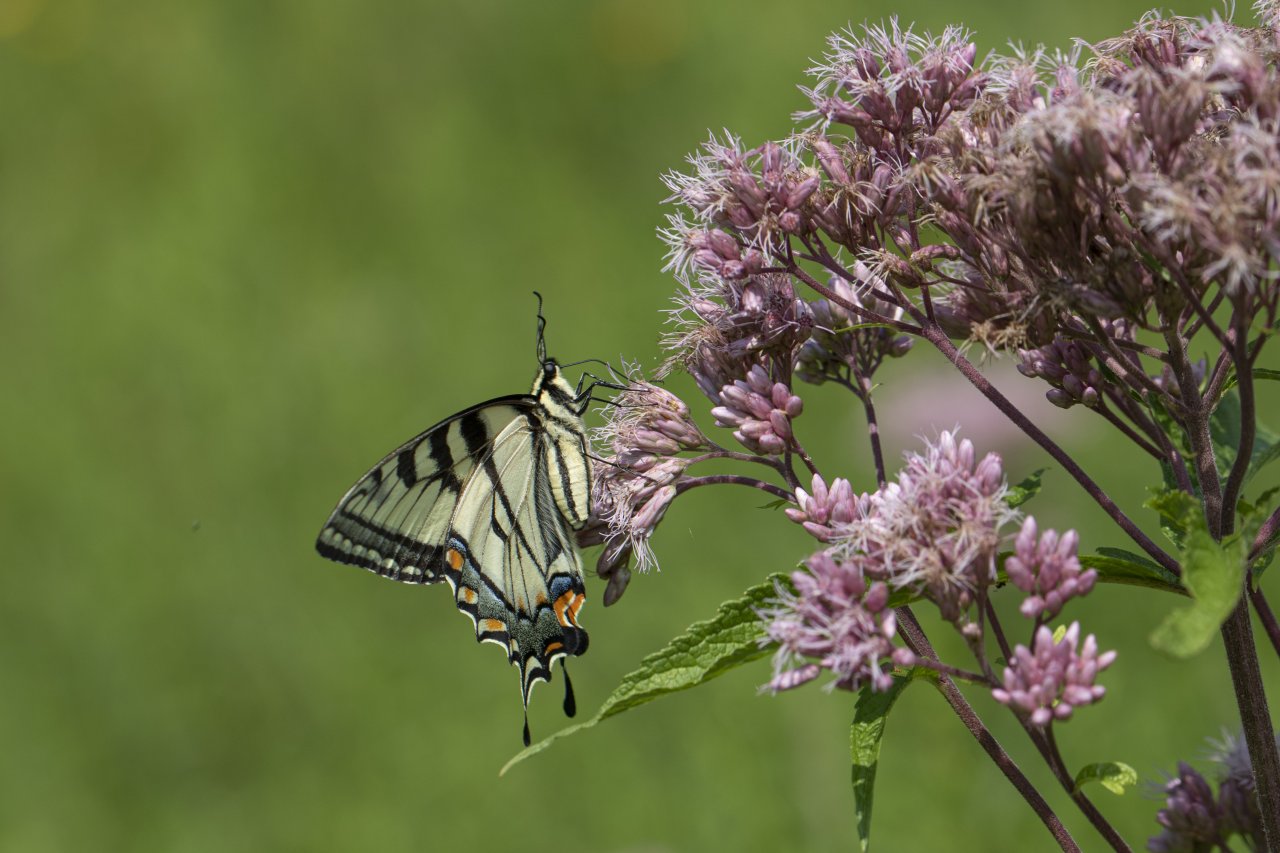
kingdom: Animalia
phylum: Arthropoda
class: Insecta
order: Lepidoptera
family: Papilionidae
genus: Pterourus
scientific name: Pterourus
